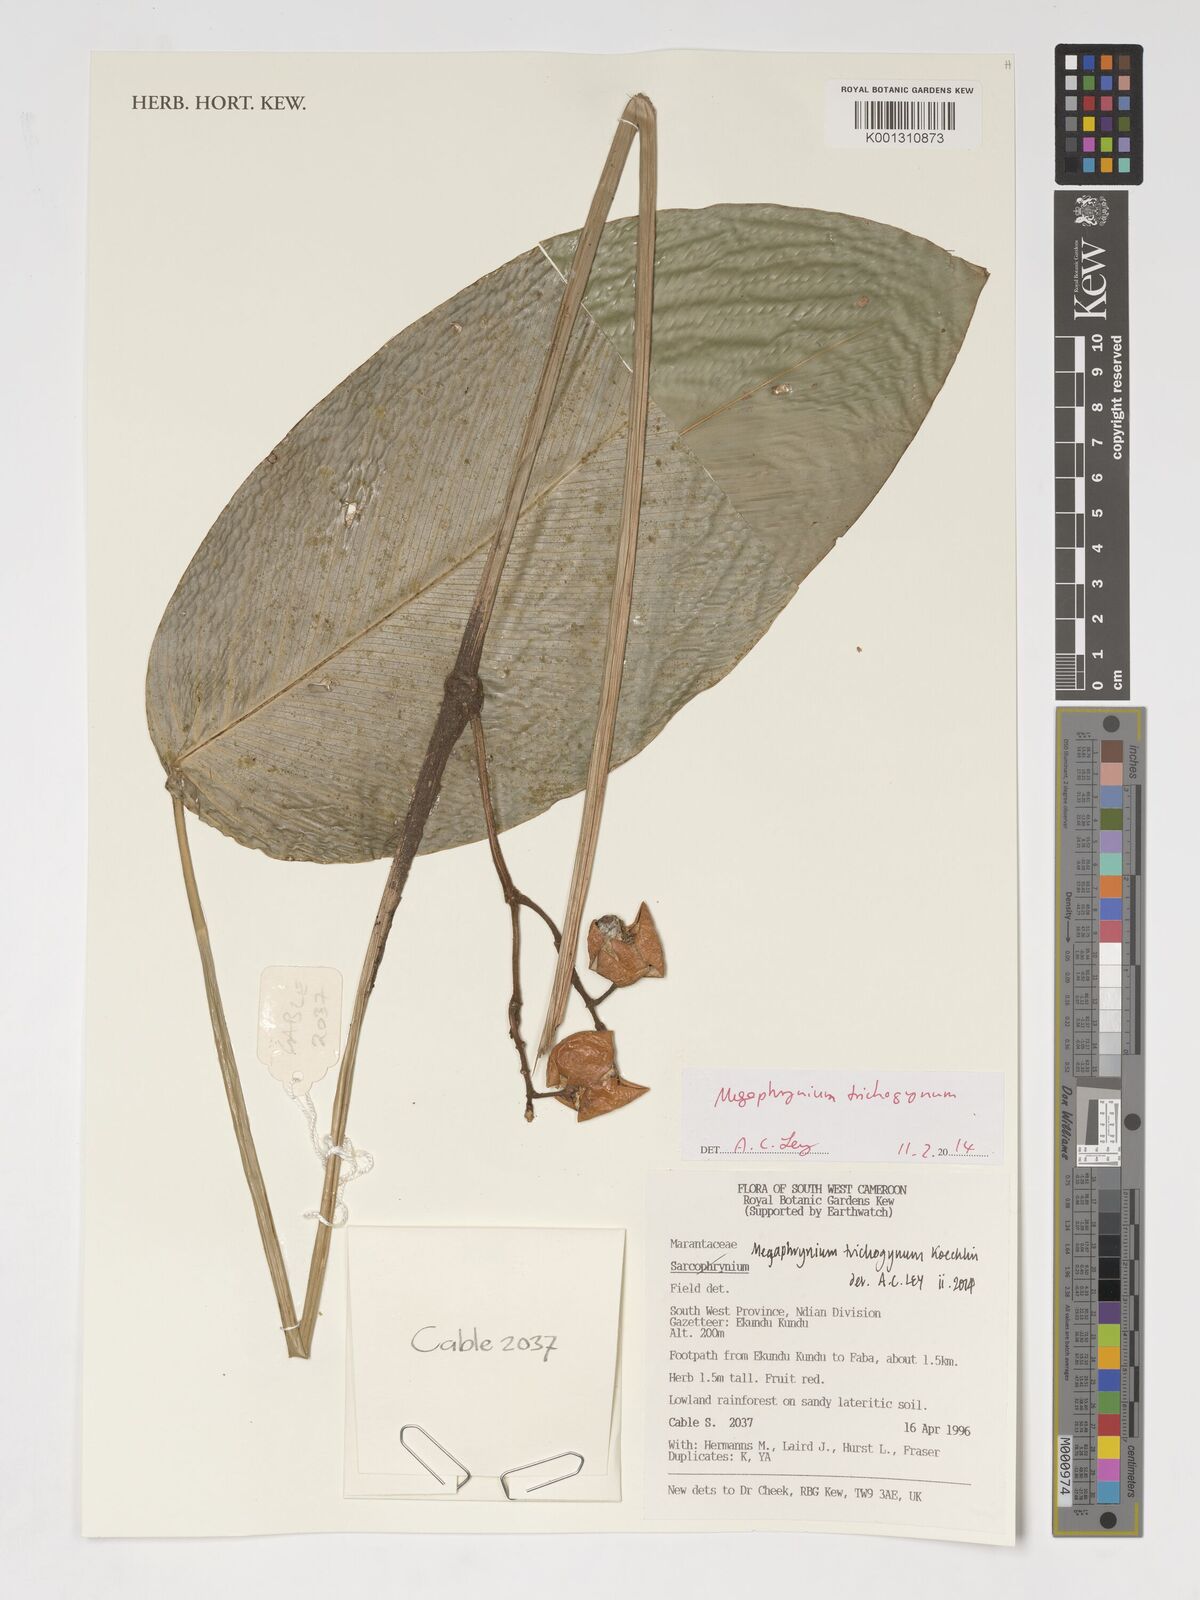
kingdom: Plantae
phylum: Tracheophyta
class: Liliopsida
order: Zingiberales
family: Marantaceae
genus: Megaphrynium
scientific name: Megaphrynium trichogynum
